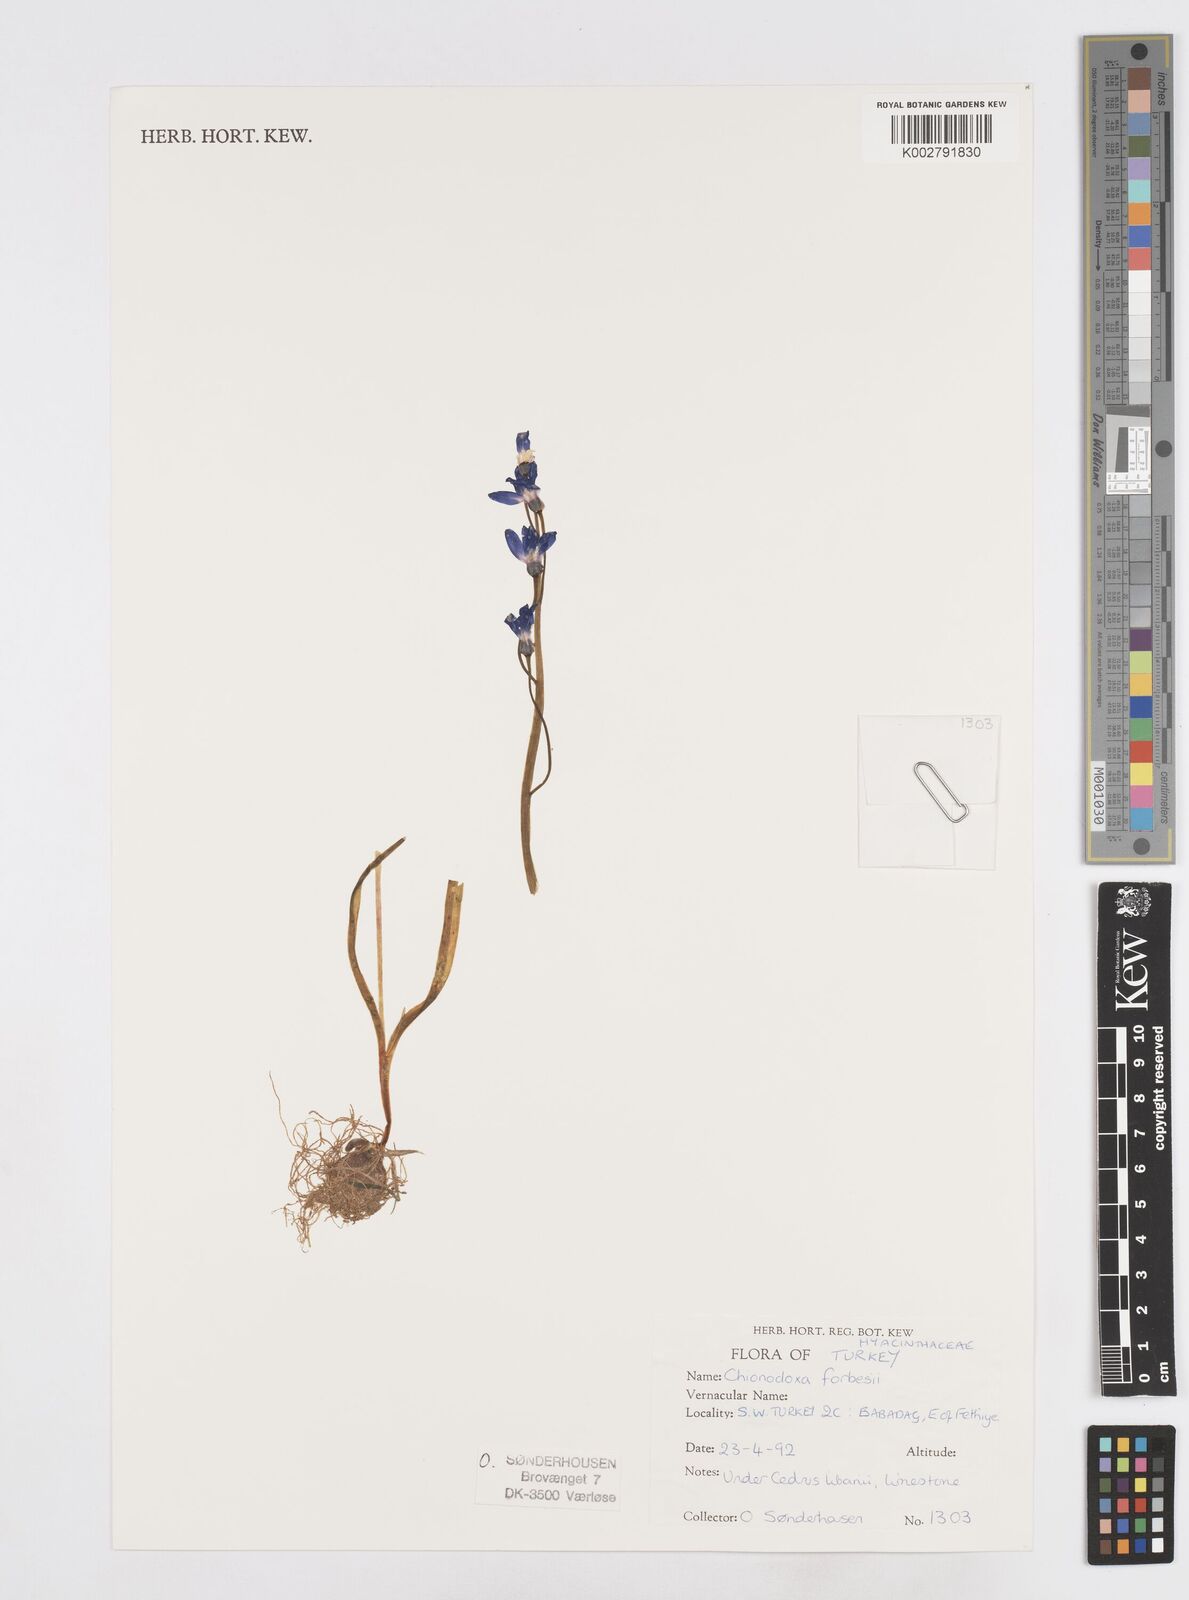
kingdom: Plantae
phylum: Tracheophyta
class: Liliopsida
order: Asparagales
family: Asparagaceae
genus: Scilla
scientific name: Scilla forbesii
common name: Glory-of-the-snow
